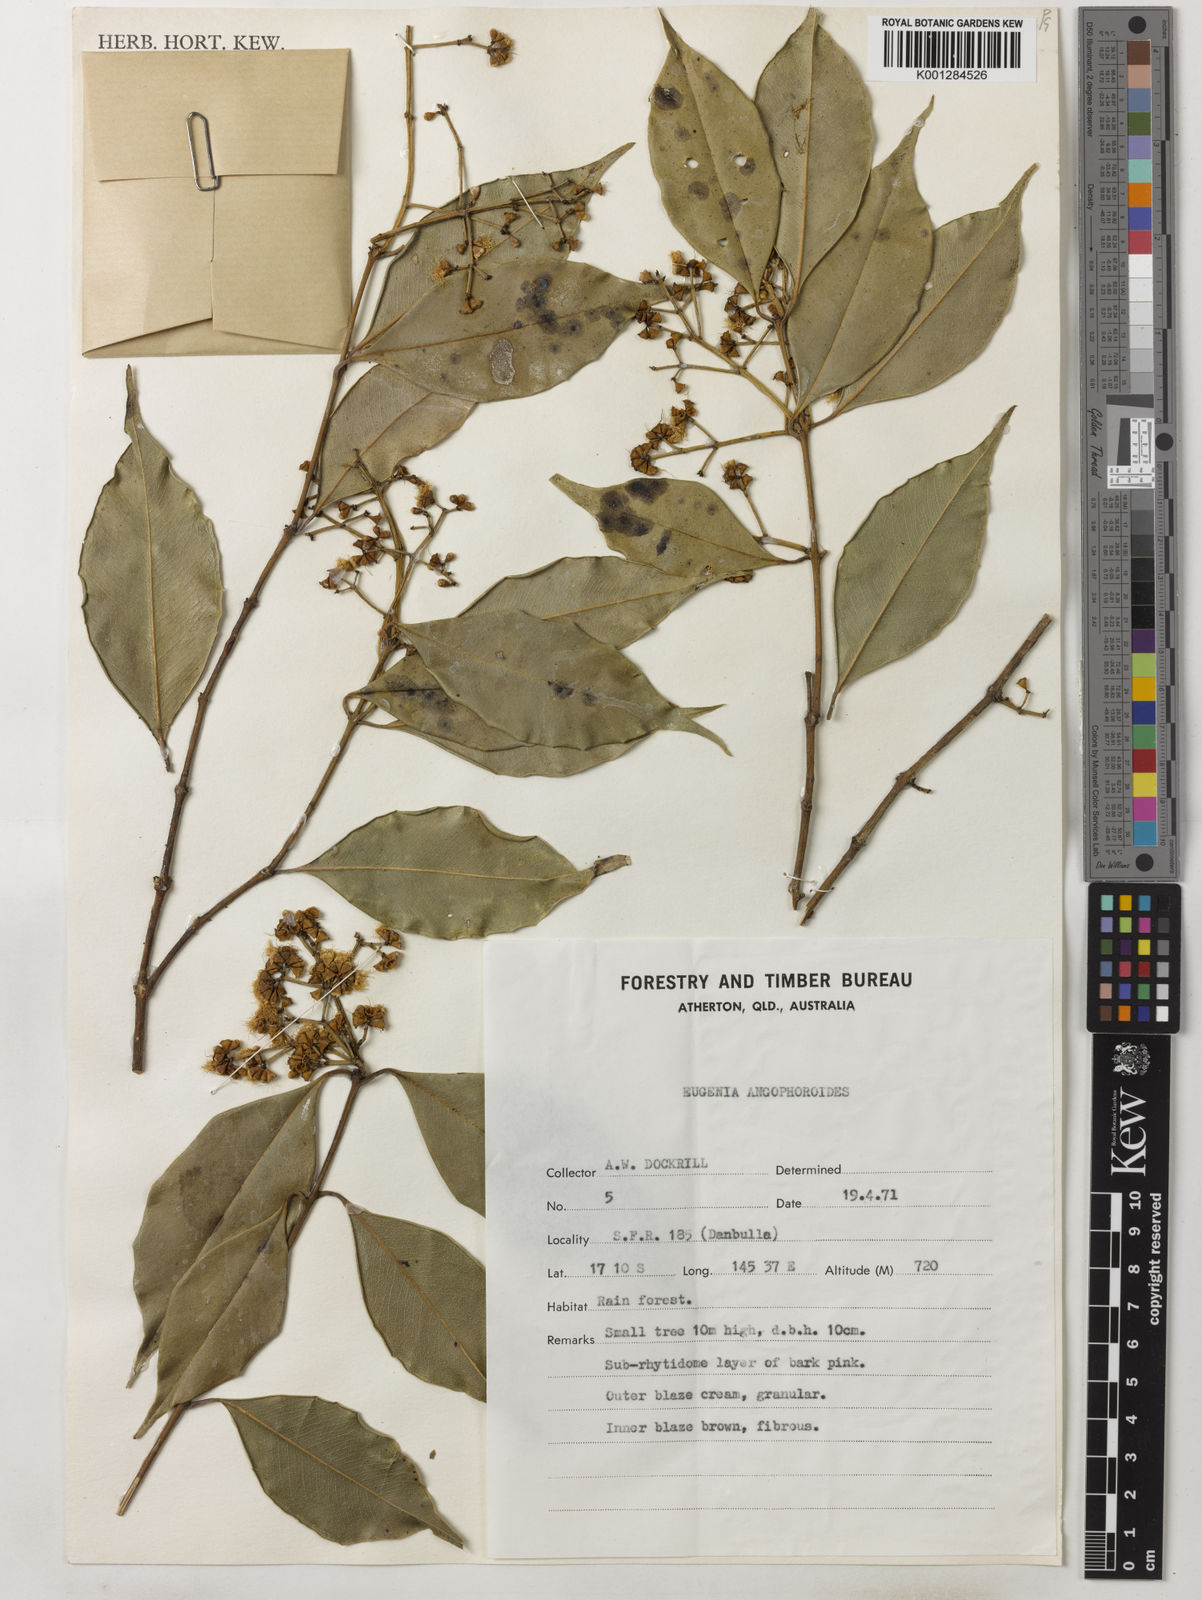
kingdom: Plantae
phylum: Tracheophyta
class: Magnoliopsida
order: Myrtales
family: Myrtaceae
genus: Syzygium
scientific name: Syzygium unipunctatum
